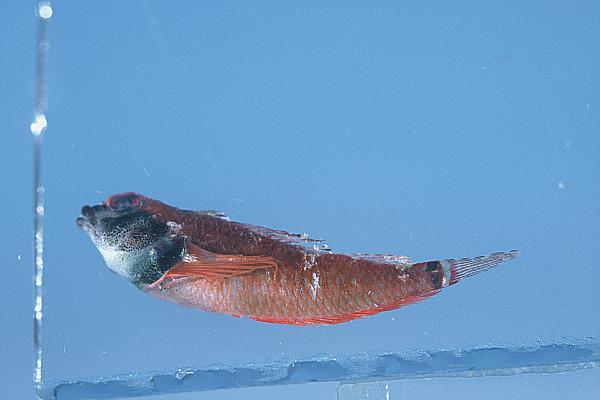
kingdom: Animalia
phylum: Chordata
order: Perciformes
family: Tripterygiidae
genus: Enneapterygius
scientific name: Enneapterygius elegans
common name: Elegant triplefin
